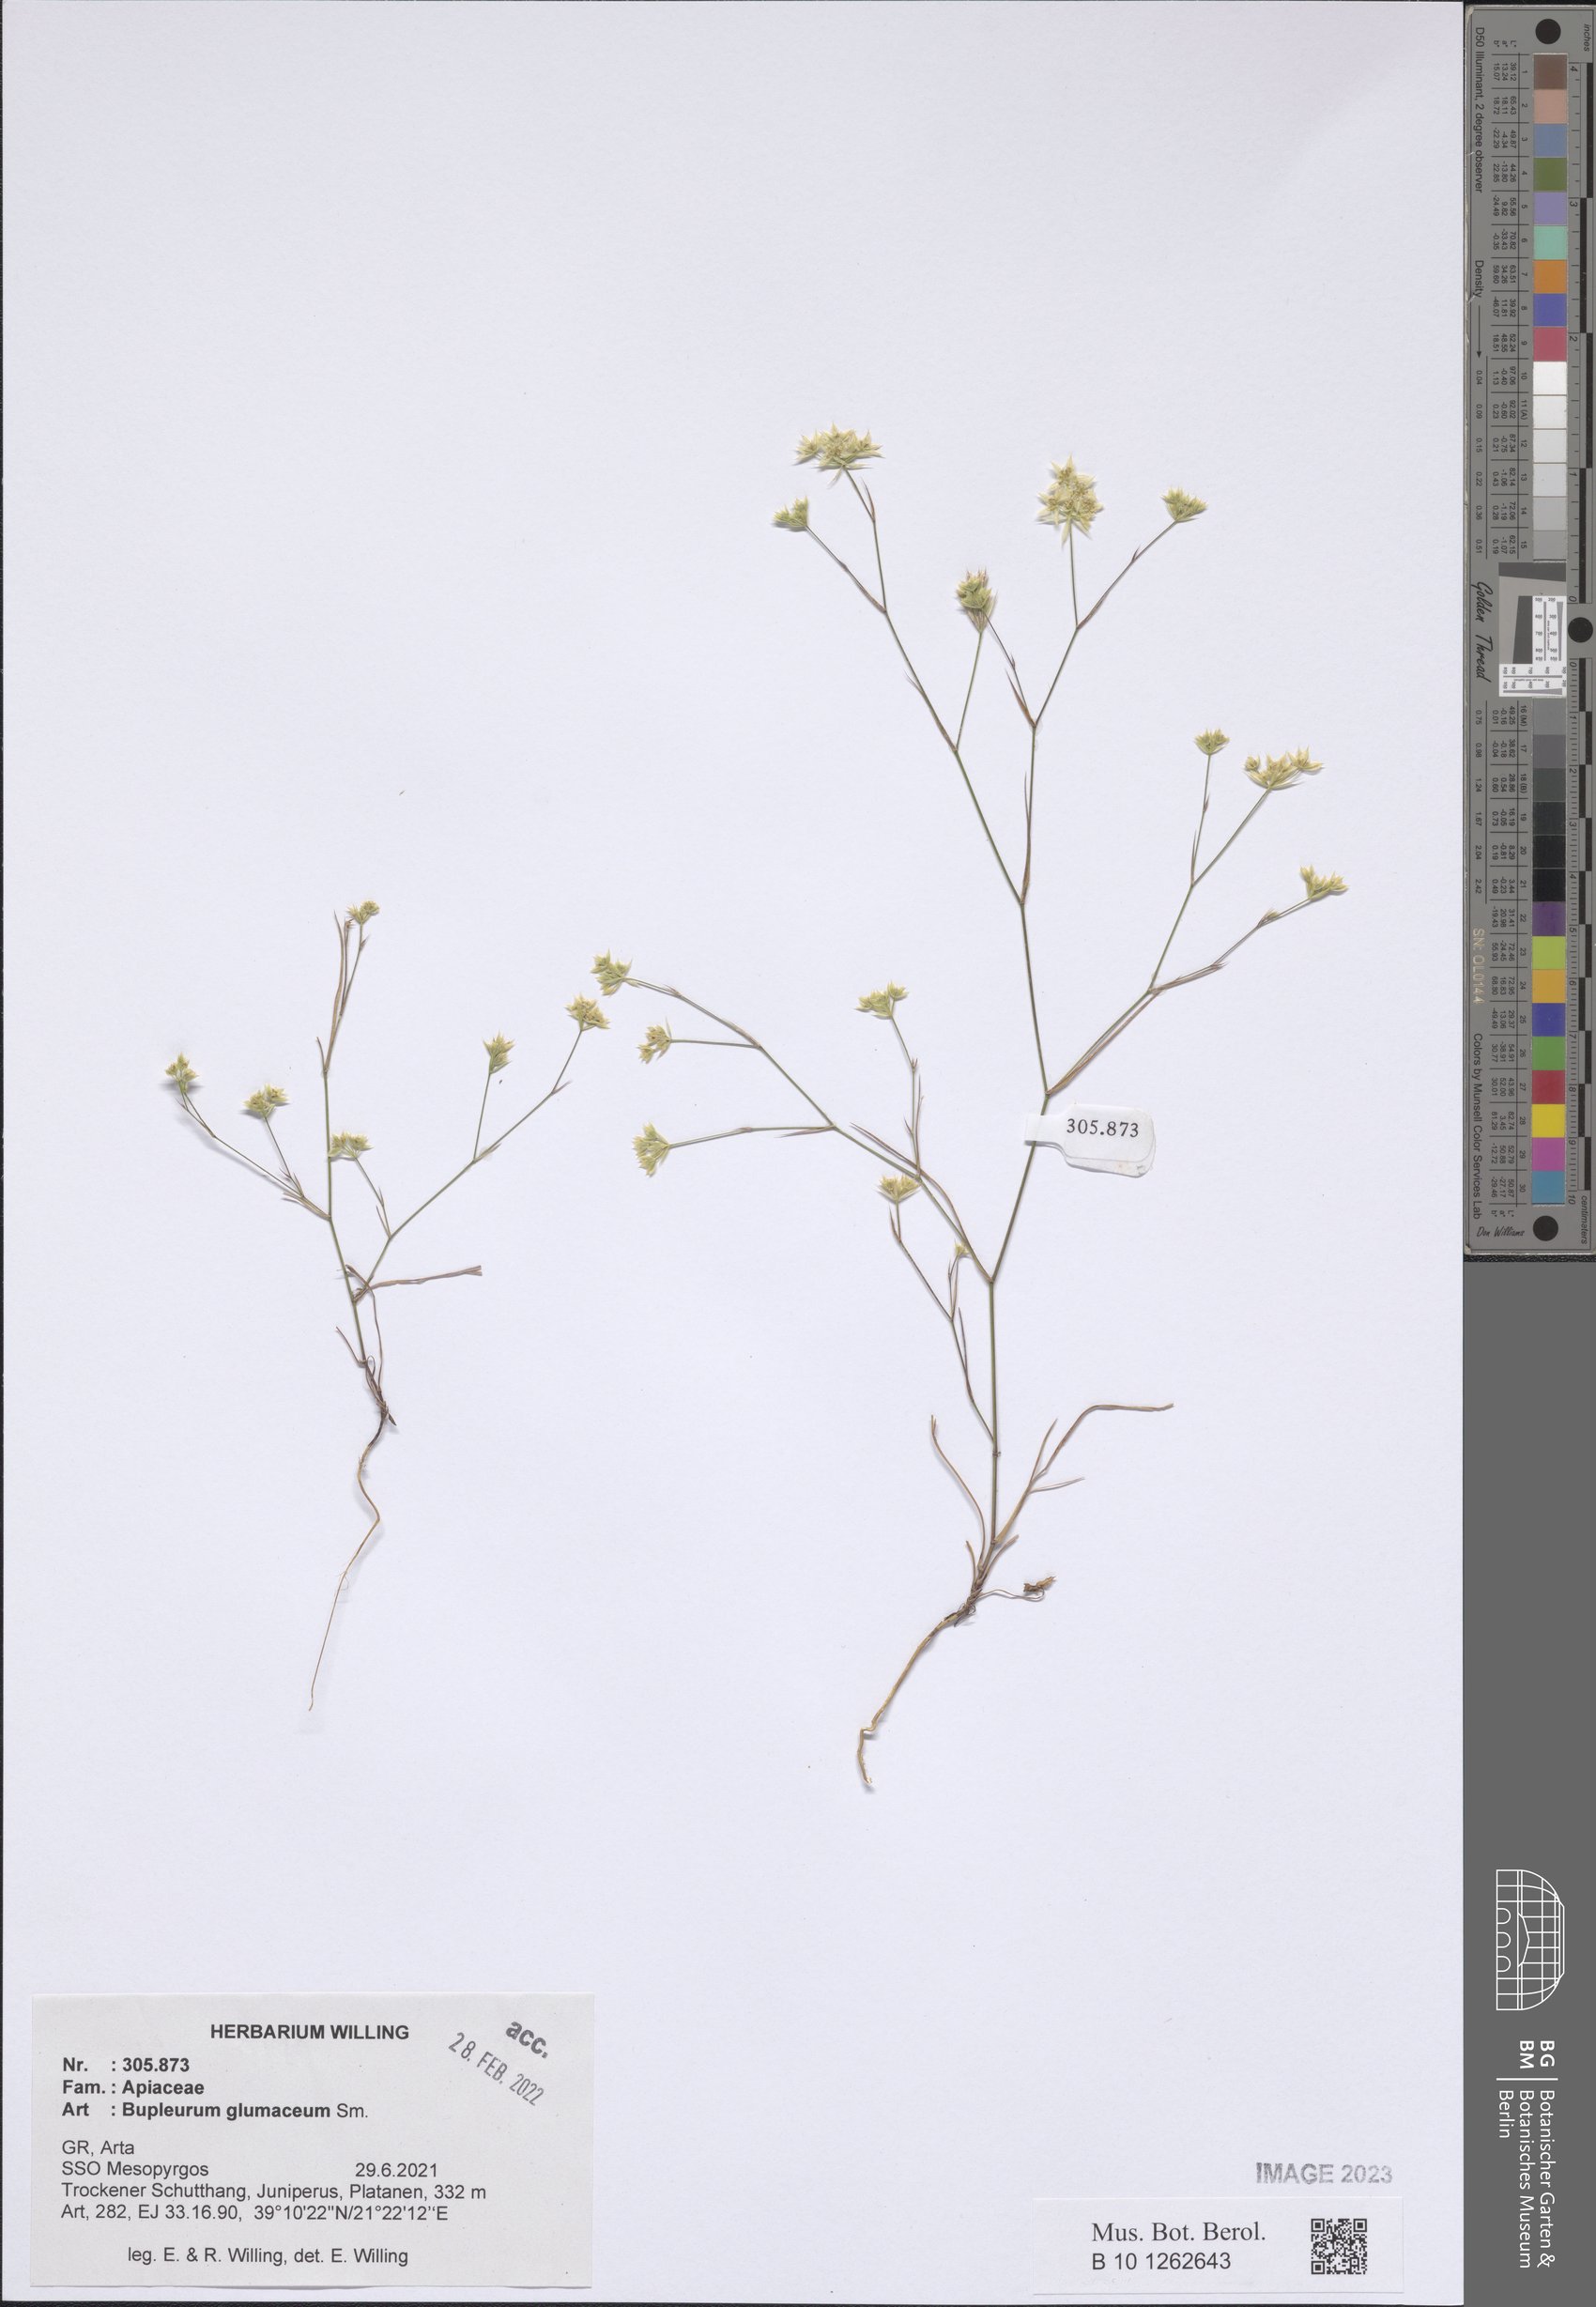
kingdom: Plantae
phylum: Tracheophyta
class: Magnoliopsida
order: Apiales
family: Apiaceae
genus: Bupleurum
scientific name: Bupleurum glumaceum
